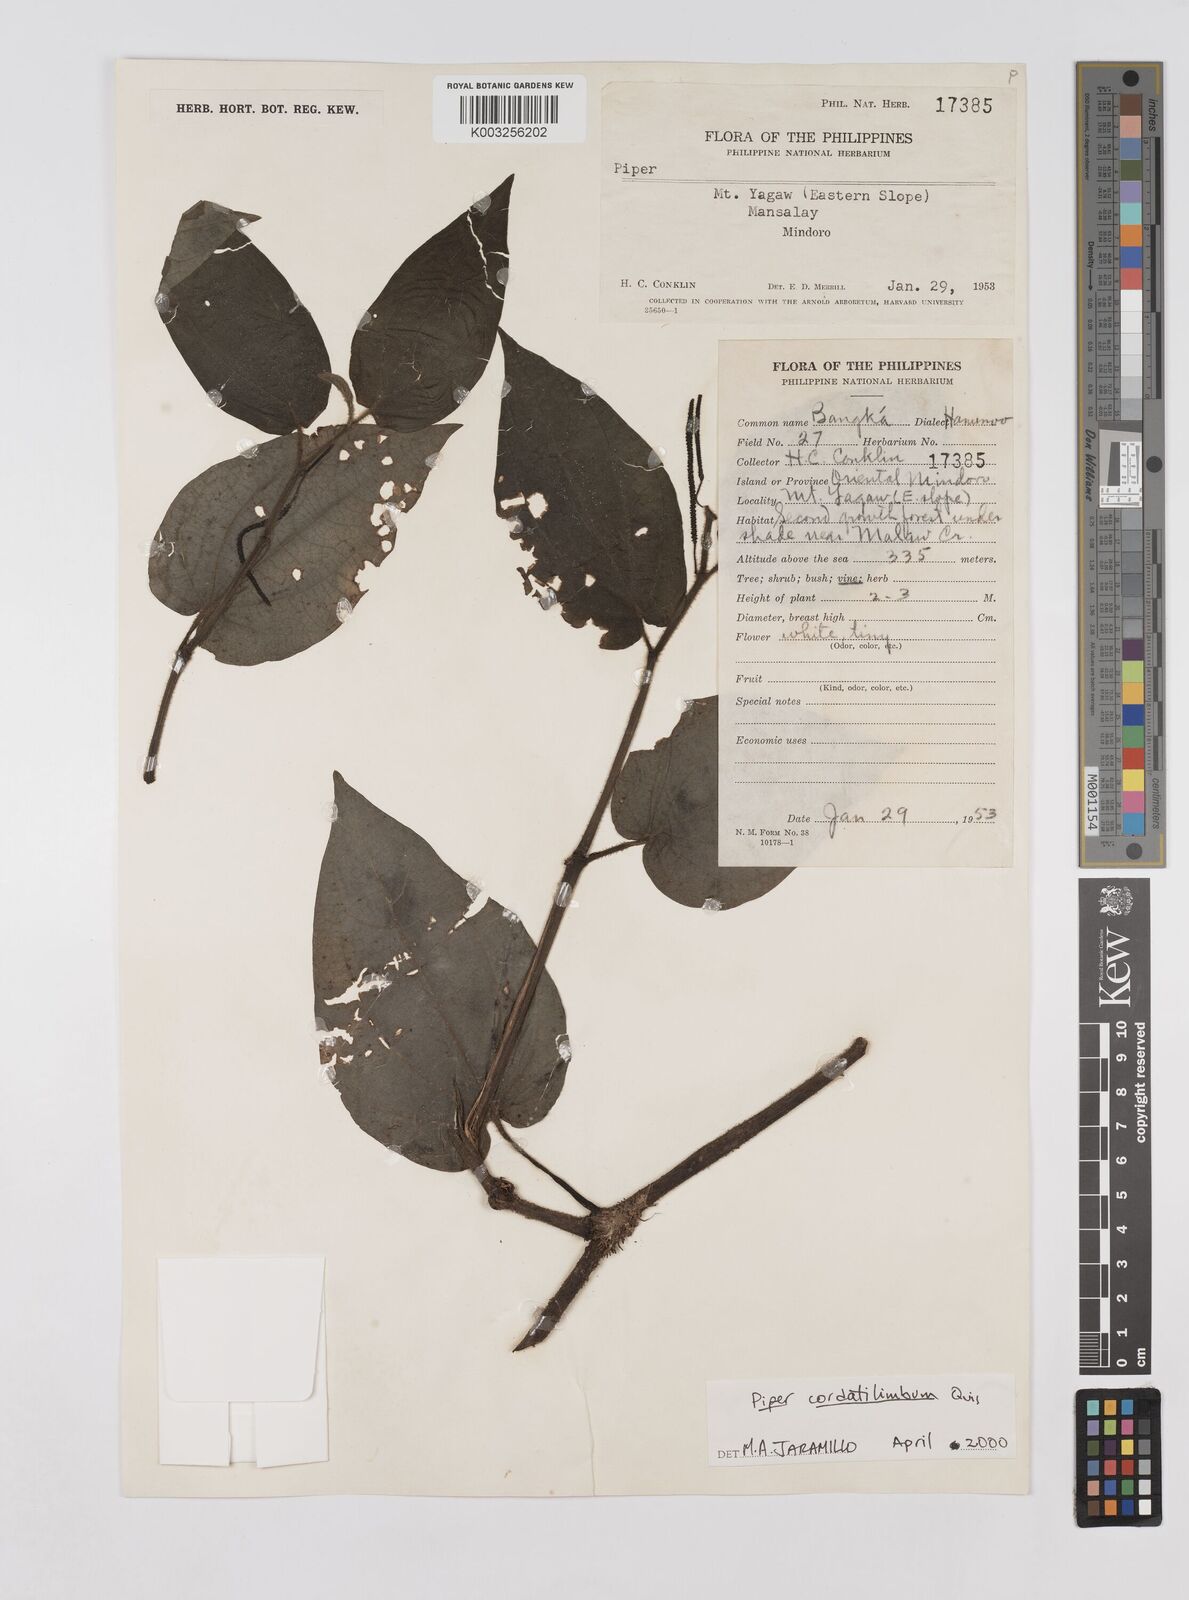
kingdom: Plantae
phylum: Tracheophyta
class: Magnoliopsida
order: Piperales
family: Piperaceae
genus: Piper
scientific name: Piper cordatilimbum
